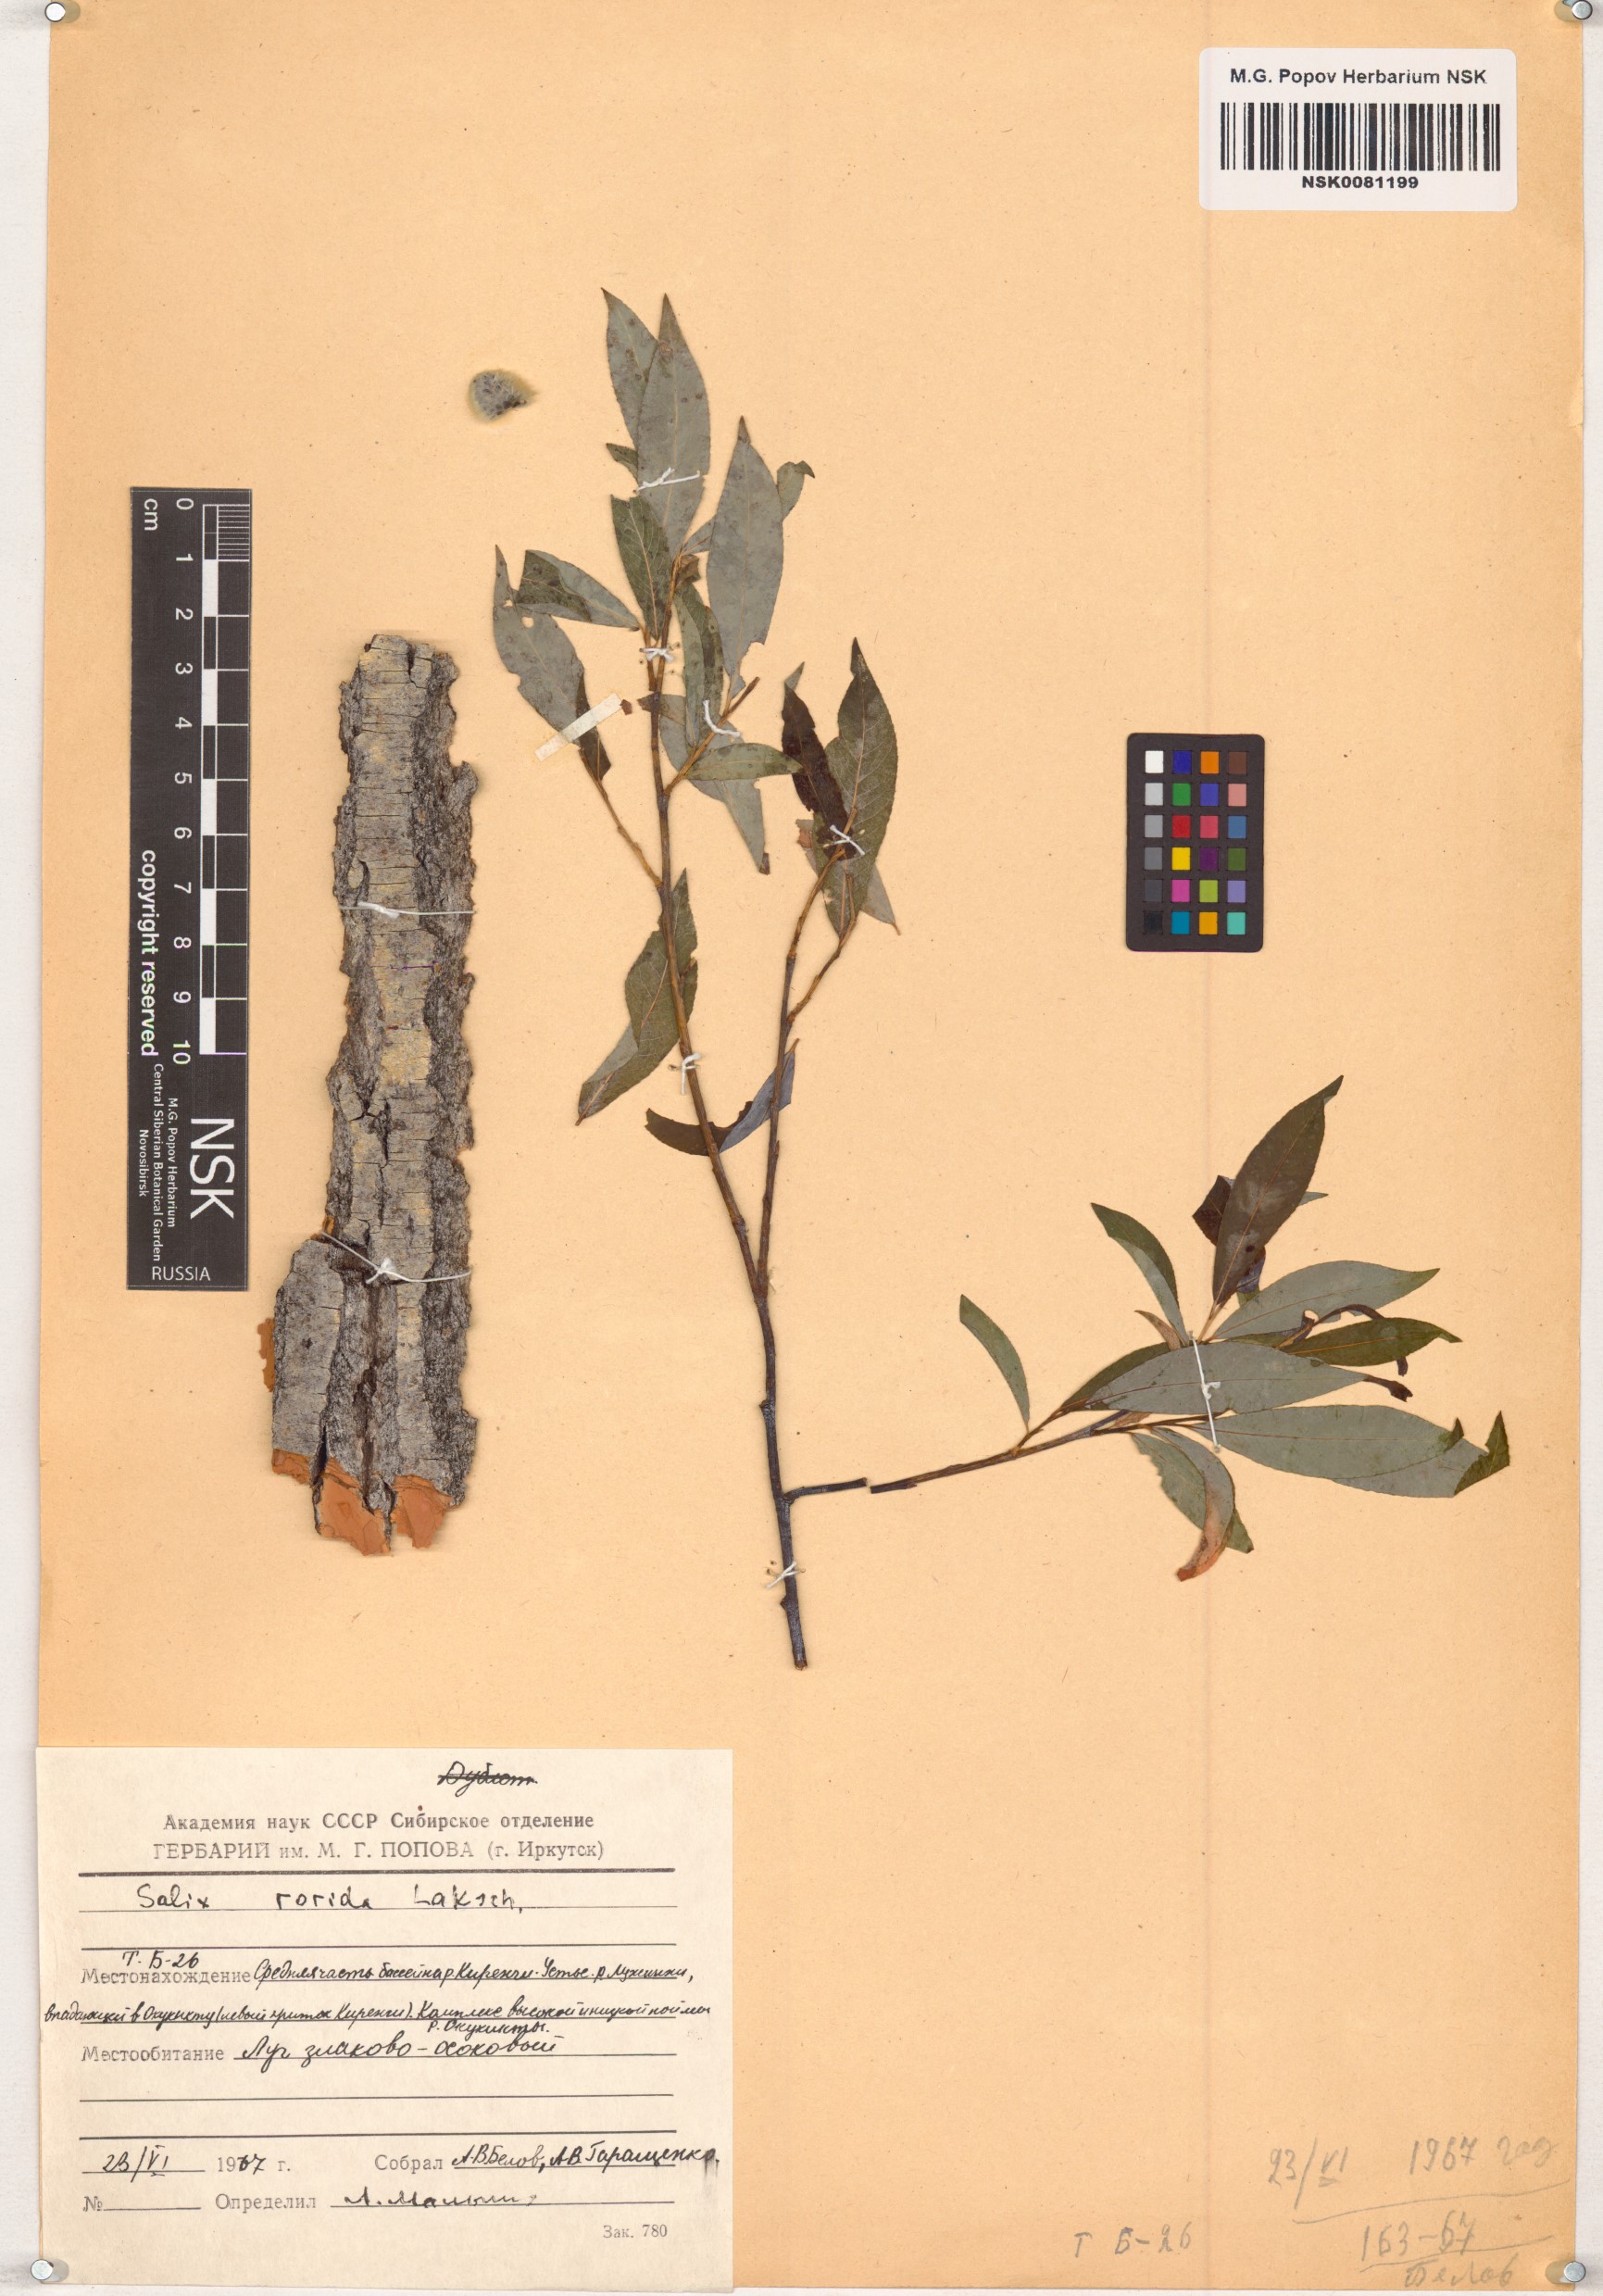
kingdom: Plantae
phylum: Tracheophyta
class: Magnoliopsida
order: Malpighiales
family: Salicaceae
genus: Salix
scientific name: Salix rorida
